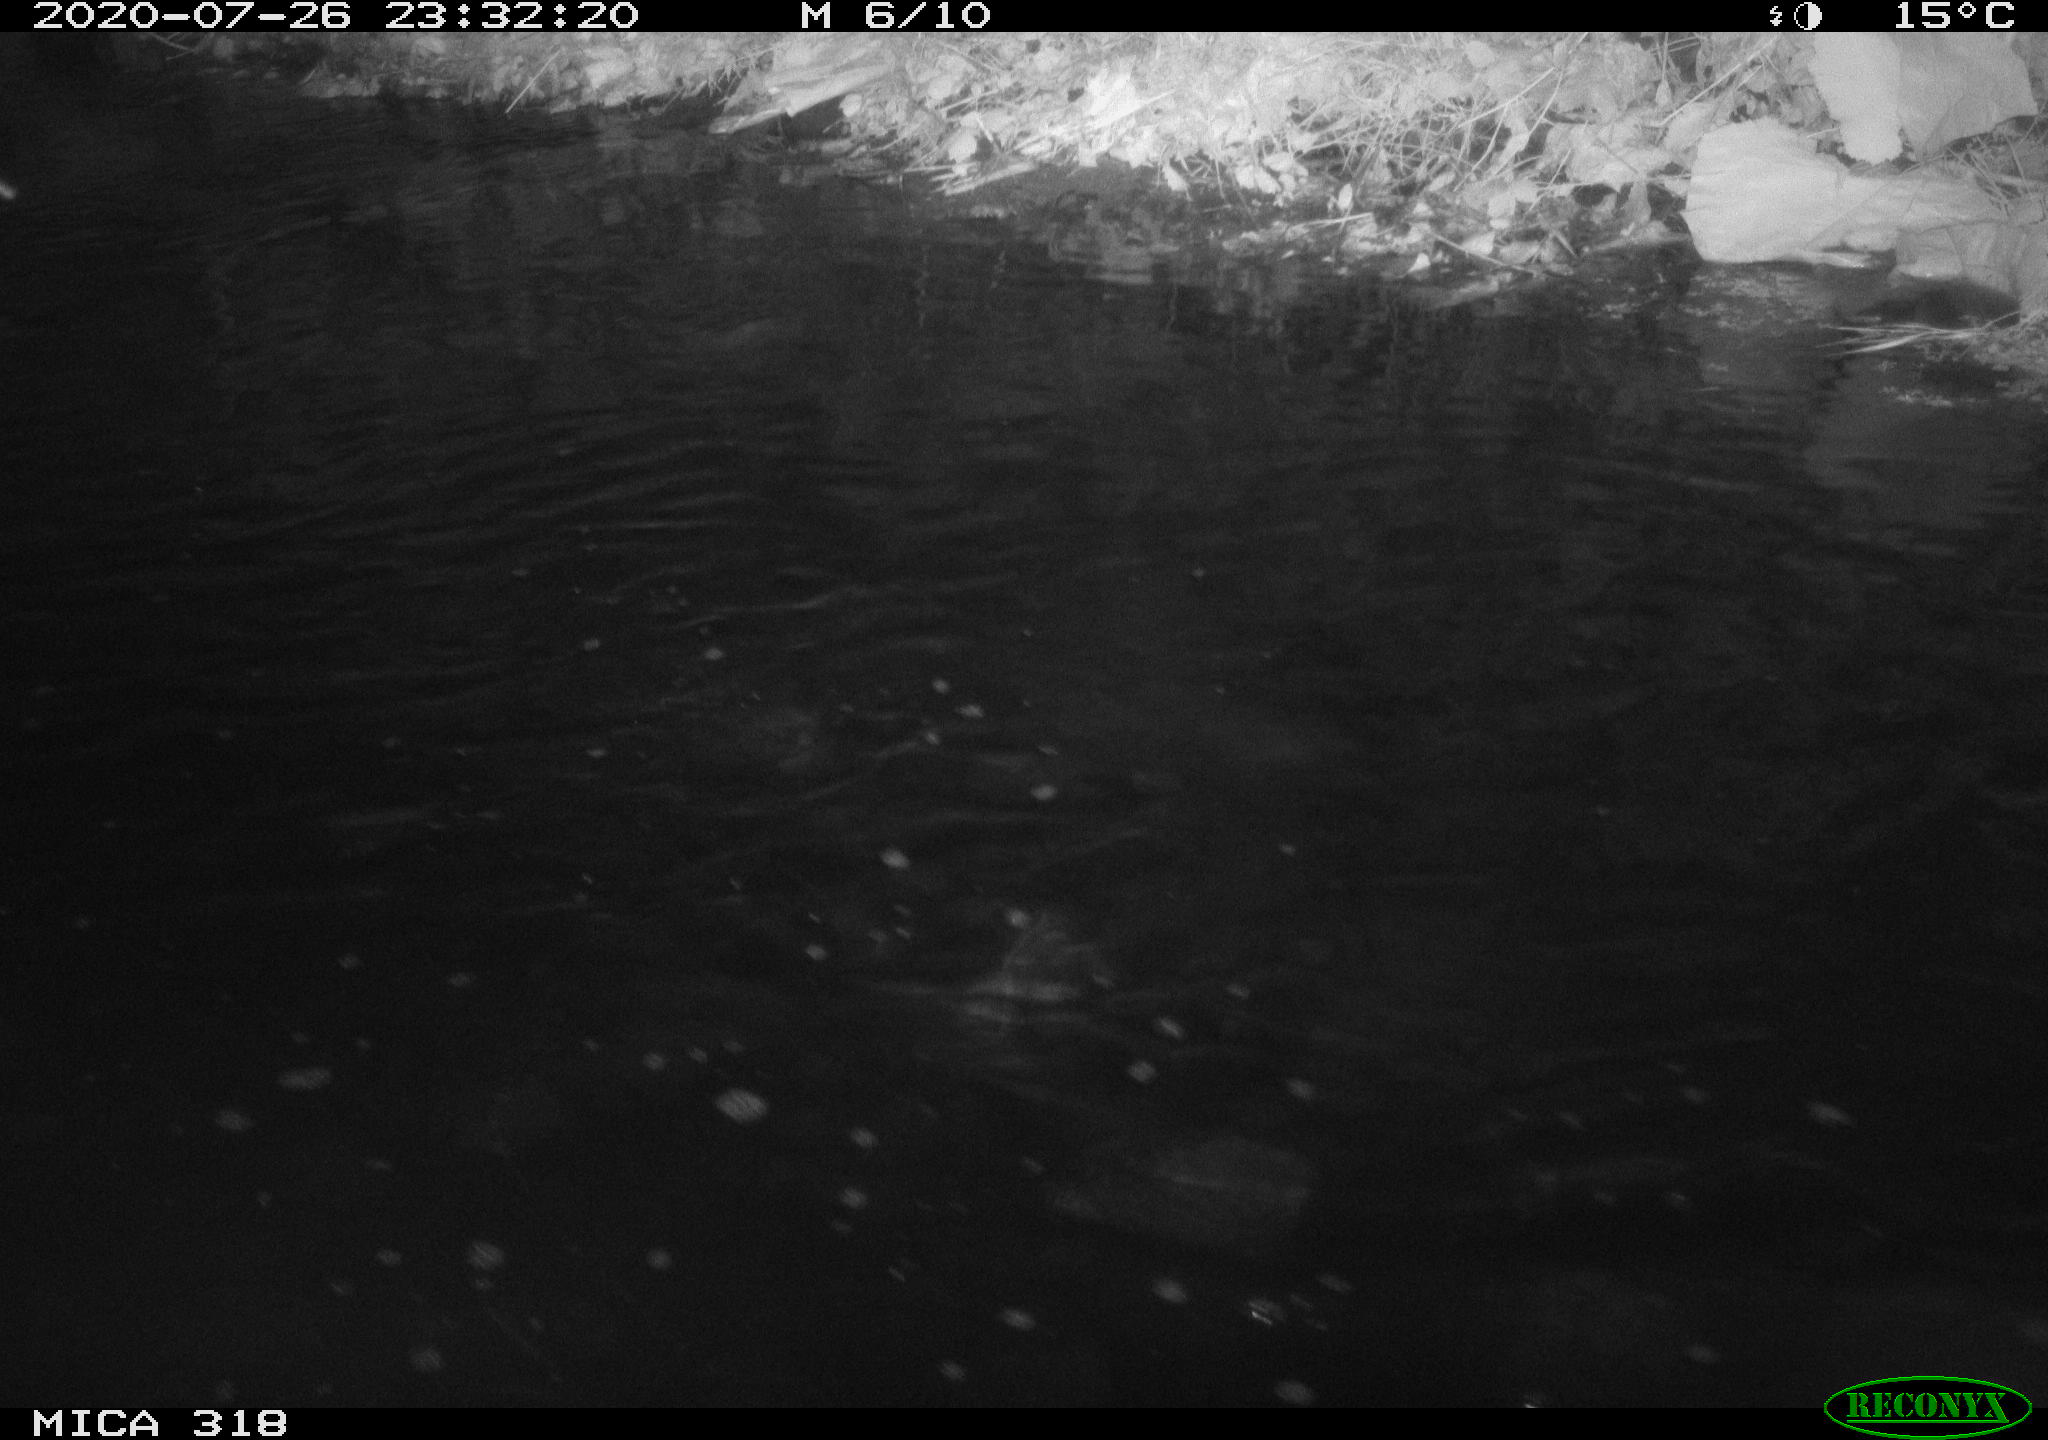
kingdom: Animalia
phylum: Chordata
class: Aves
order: Pelecaniformes
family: Ardeidae
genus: Ardea
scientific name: Ardea cinerea
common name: Grey heron
